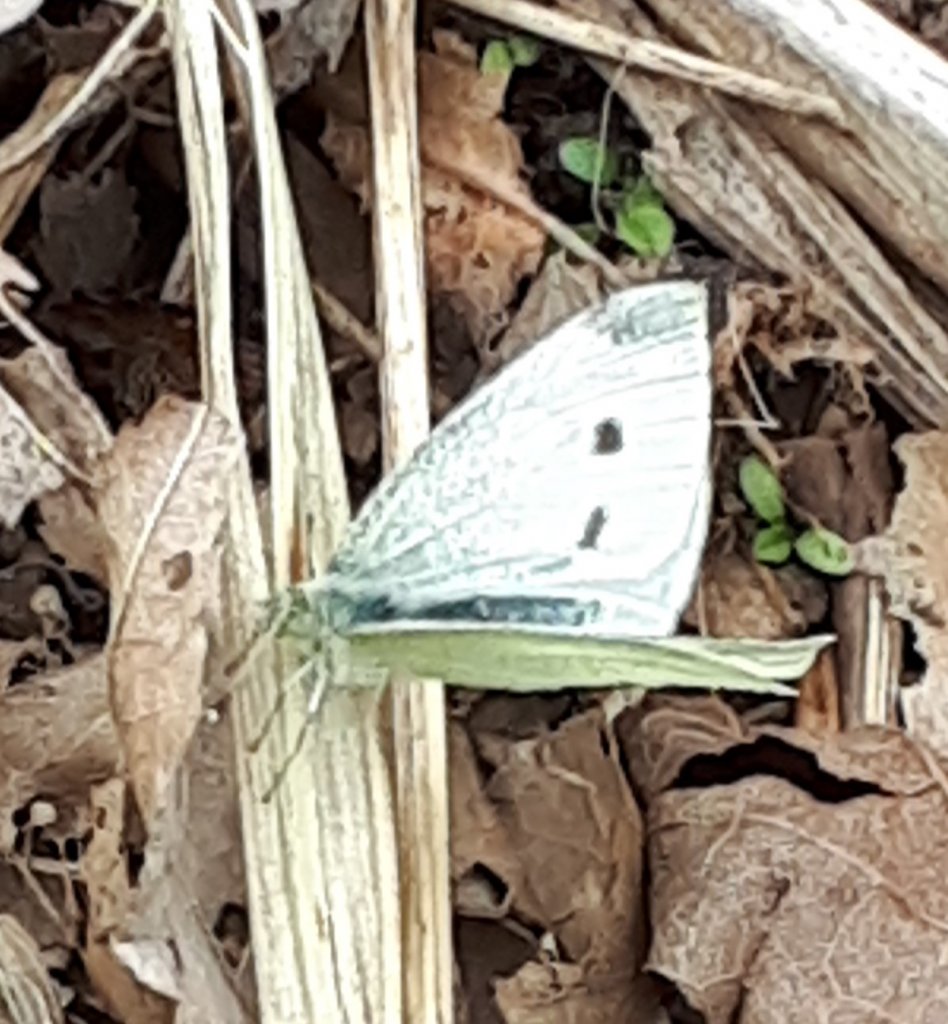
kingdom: Animalia
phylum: Arthropoda
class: Insecta
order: Lepidoptera
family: Pieridae
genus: Pieris
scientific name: Pieris rapae
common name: Cabbage White
